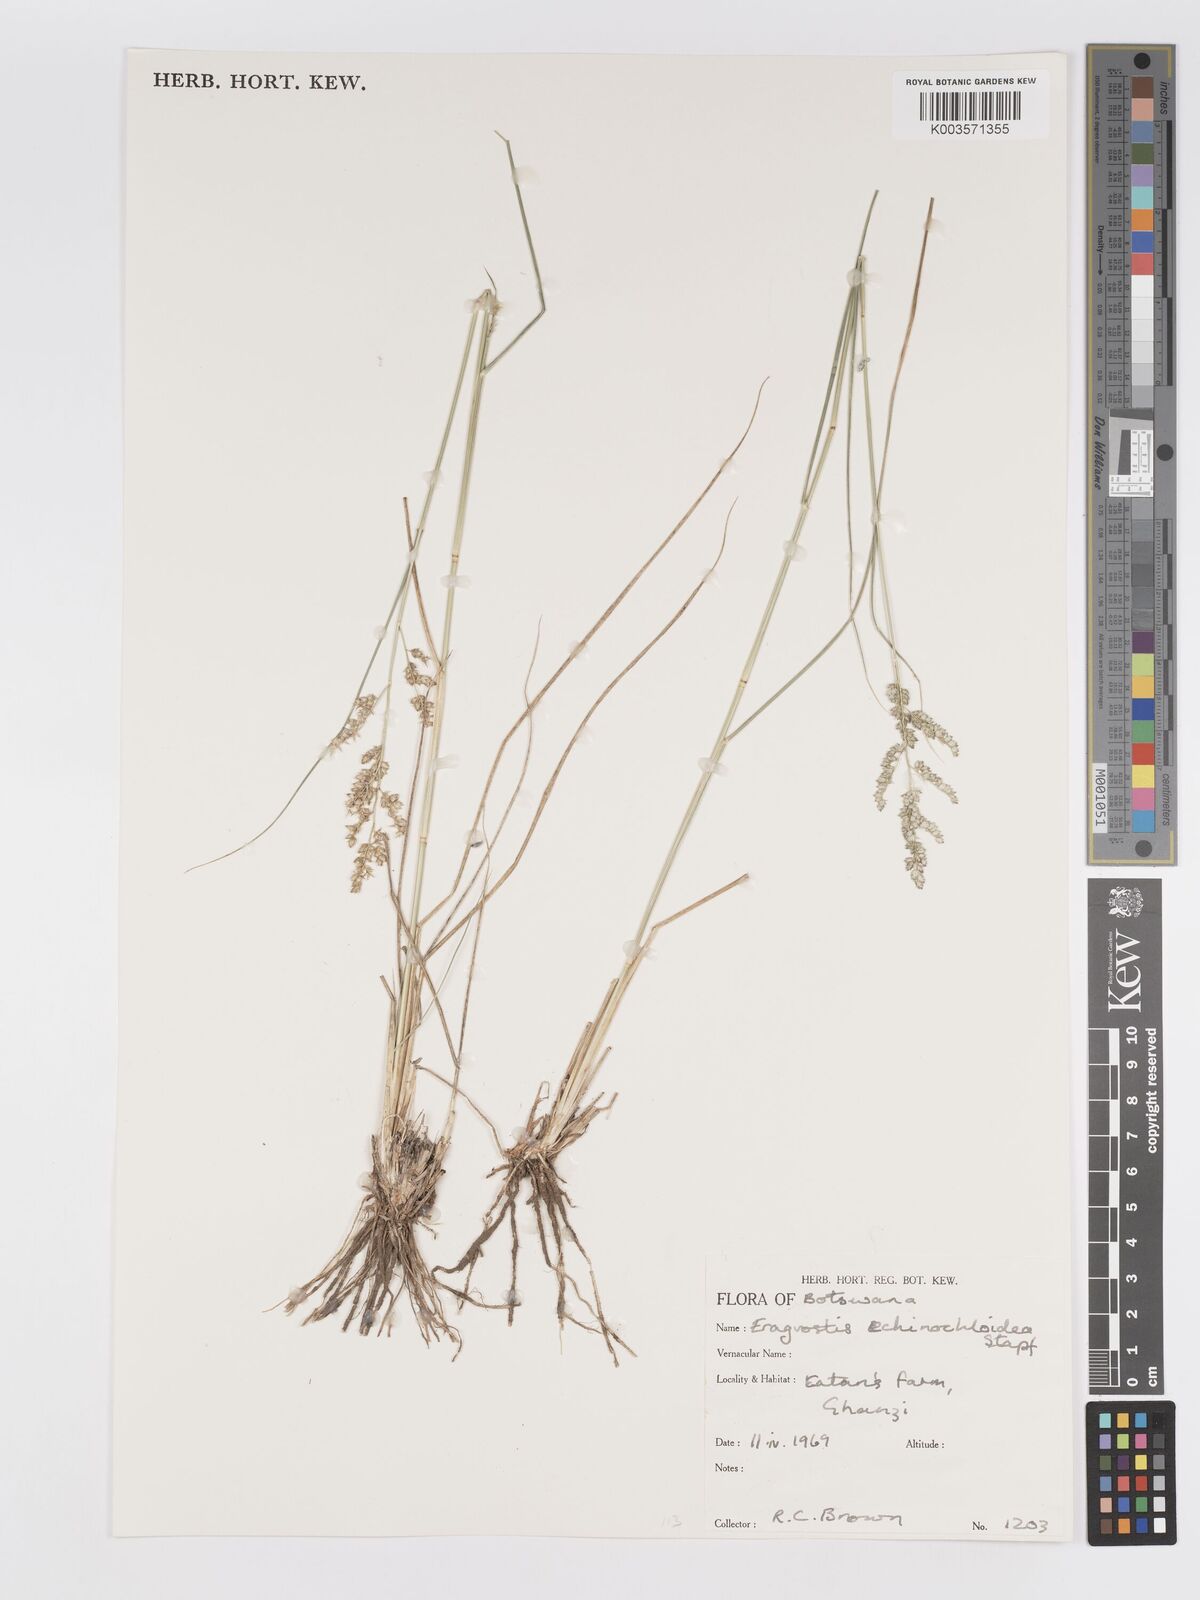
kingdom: Plantae
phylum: Tracheophyta
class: Liliopsida
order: Poales
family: Poaceae
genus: Eragrostis
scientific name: Eragrostis echinochloidea
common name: African lovegrass
